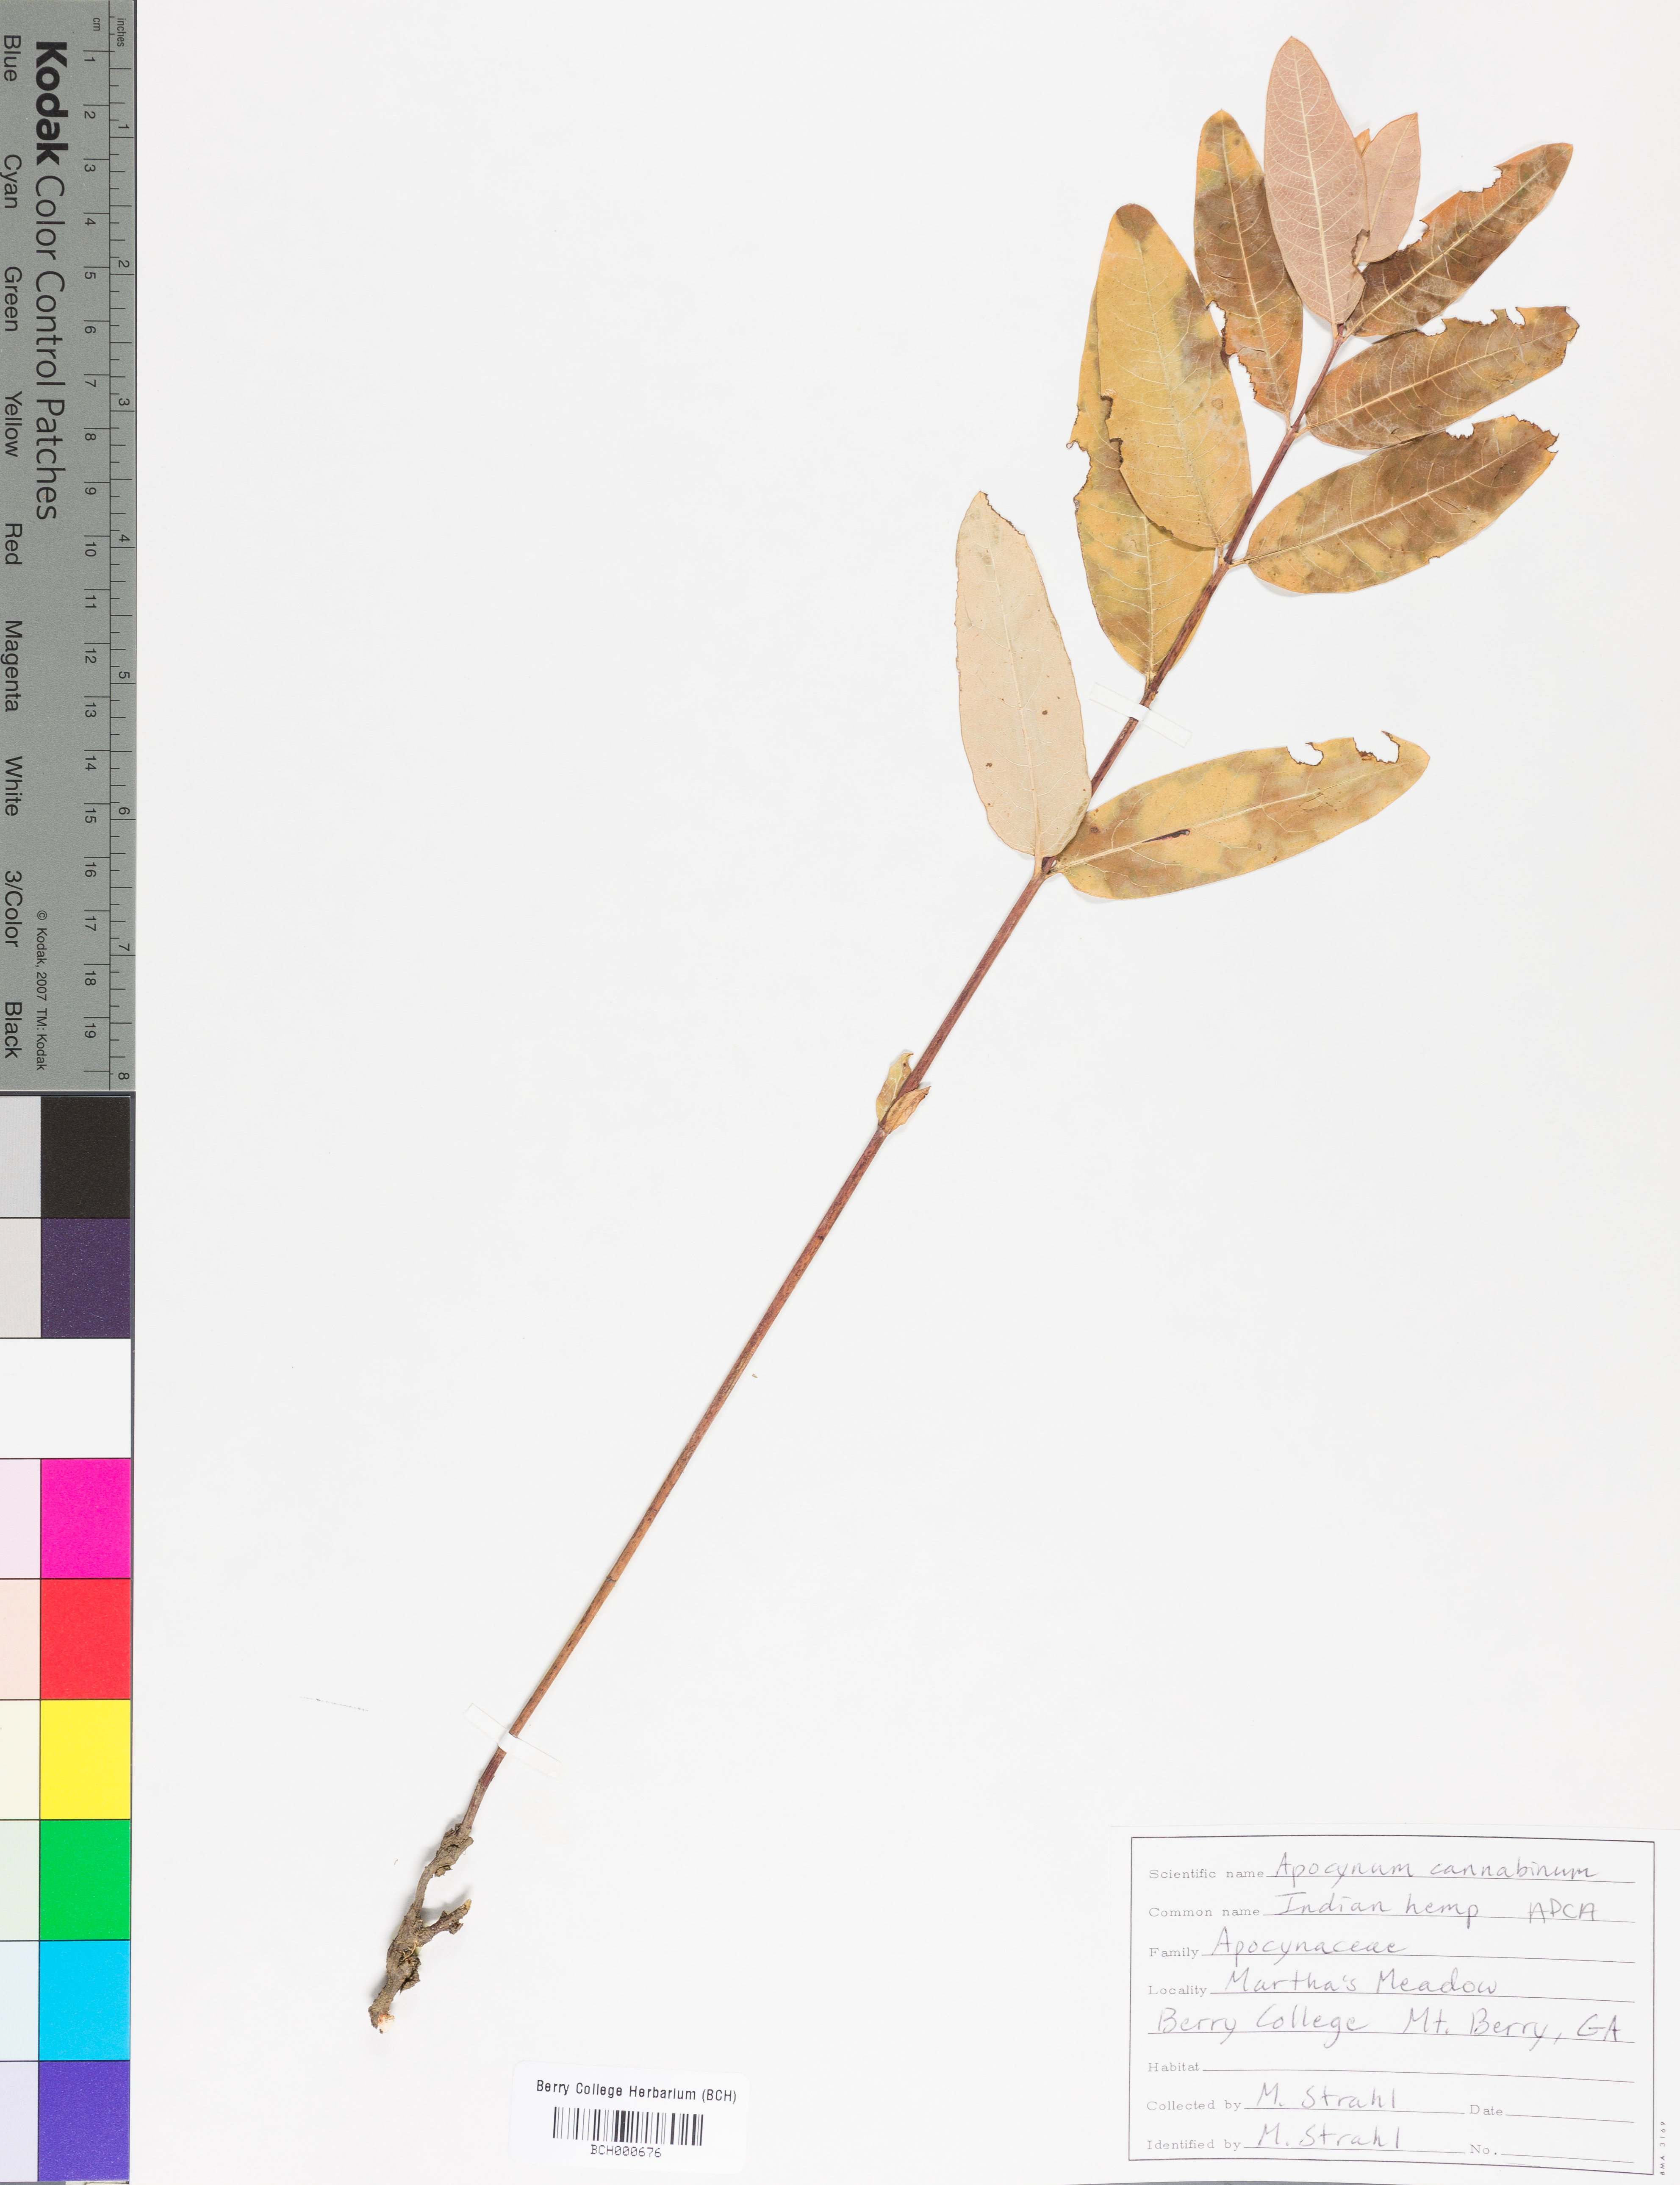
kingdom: Plantae
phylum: Tracheophyta
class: Magnoliopsida
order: Gentianales
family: Apocynaceae
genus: Apocynum
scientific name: Apocynum cannabinum
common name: Hemp dogbane
